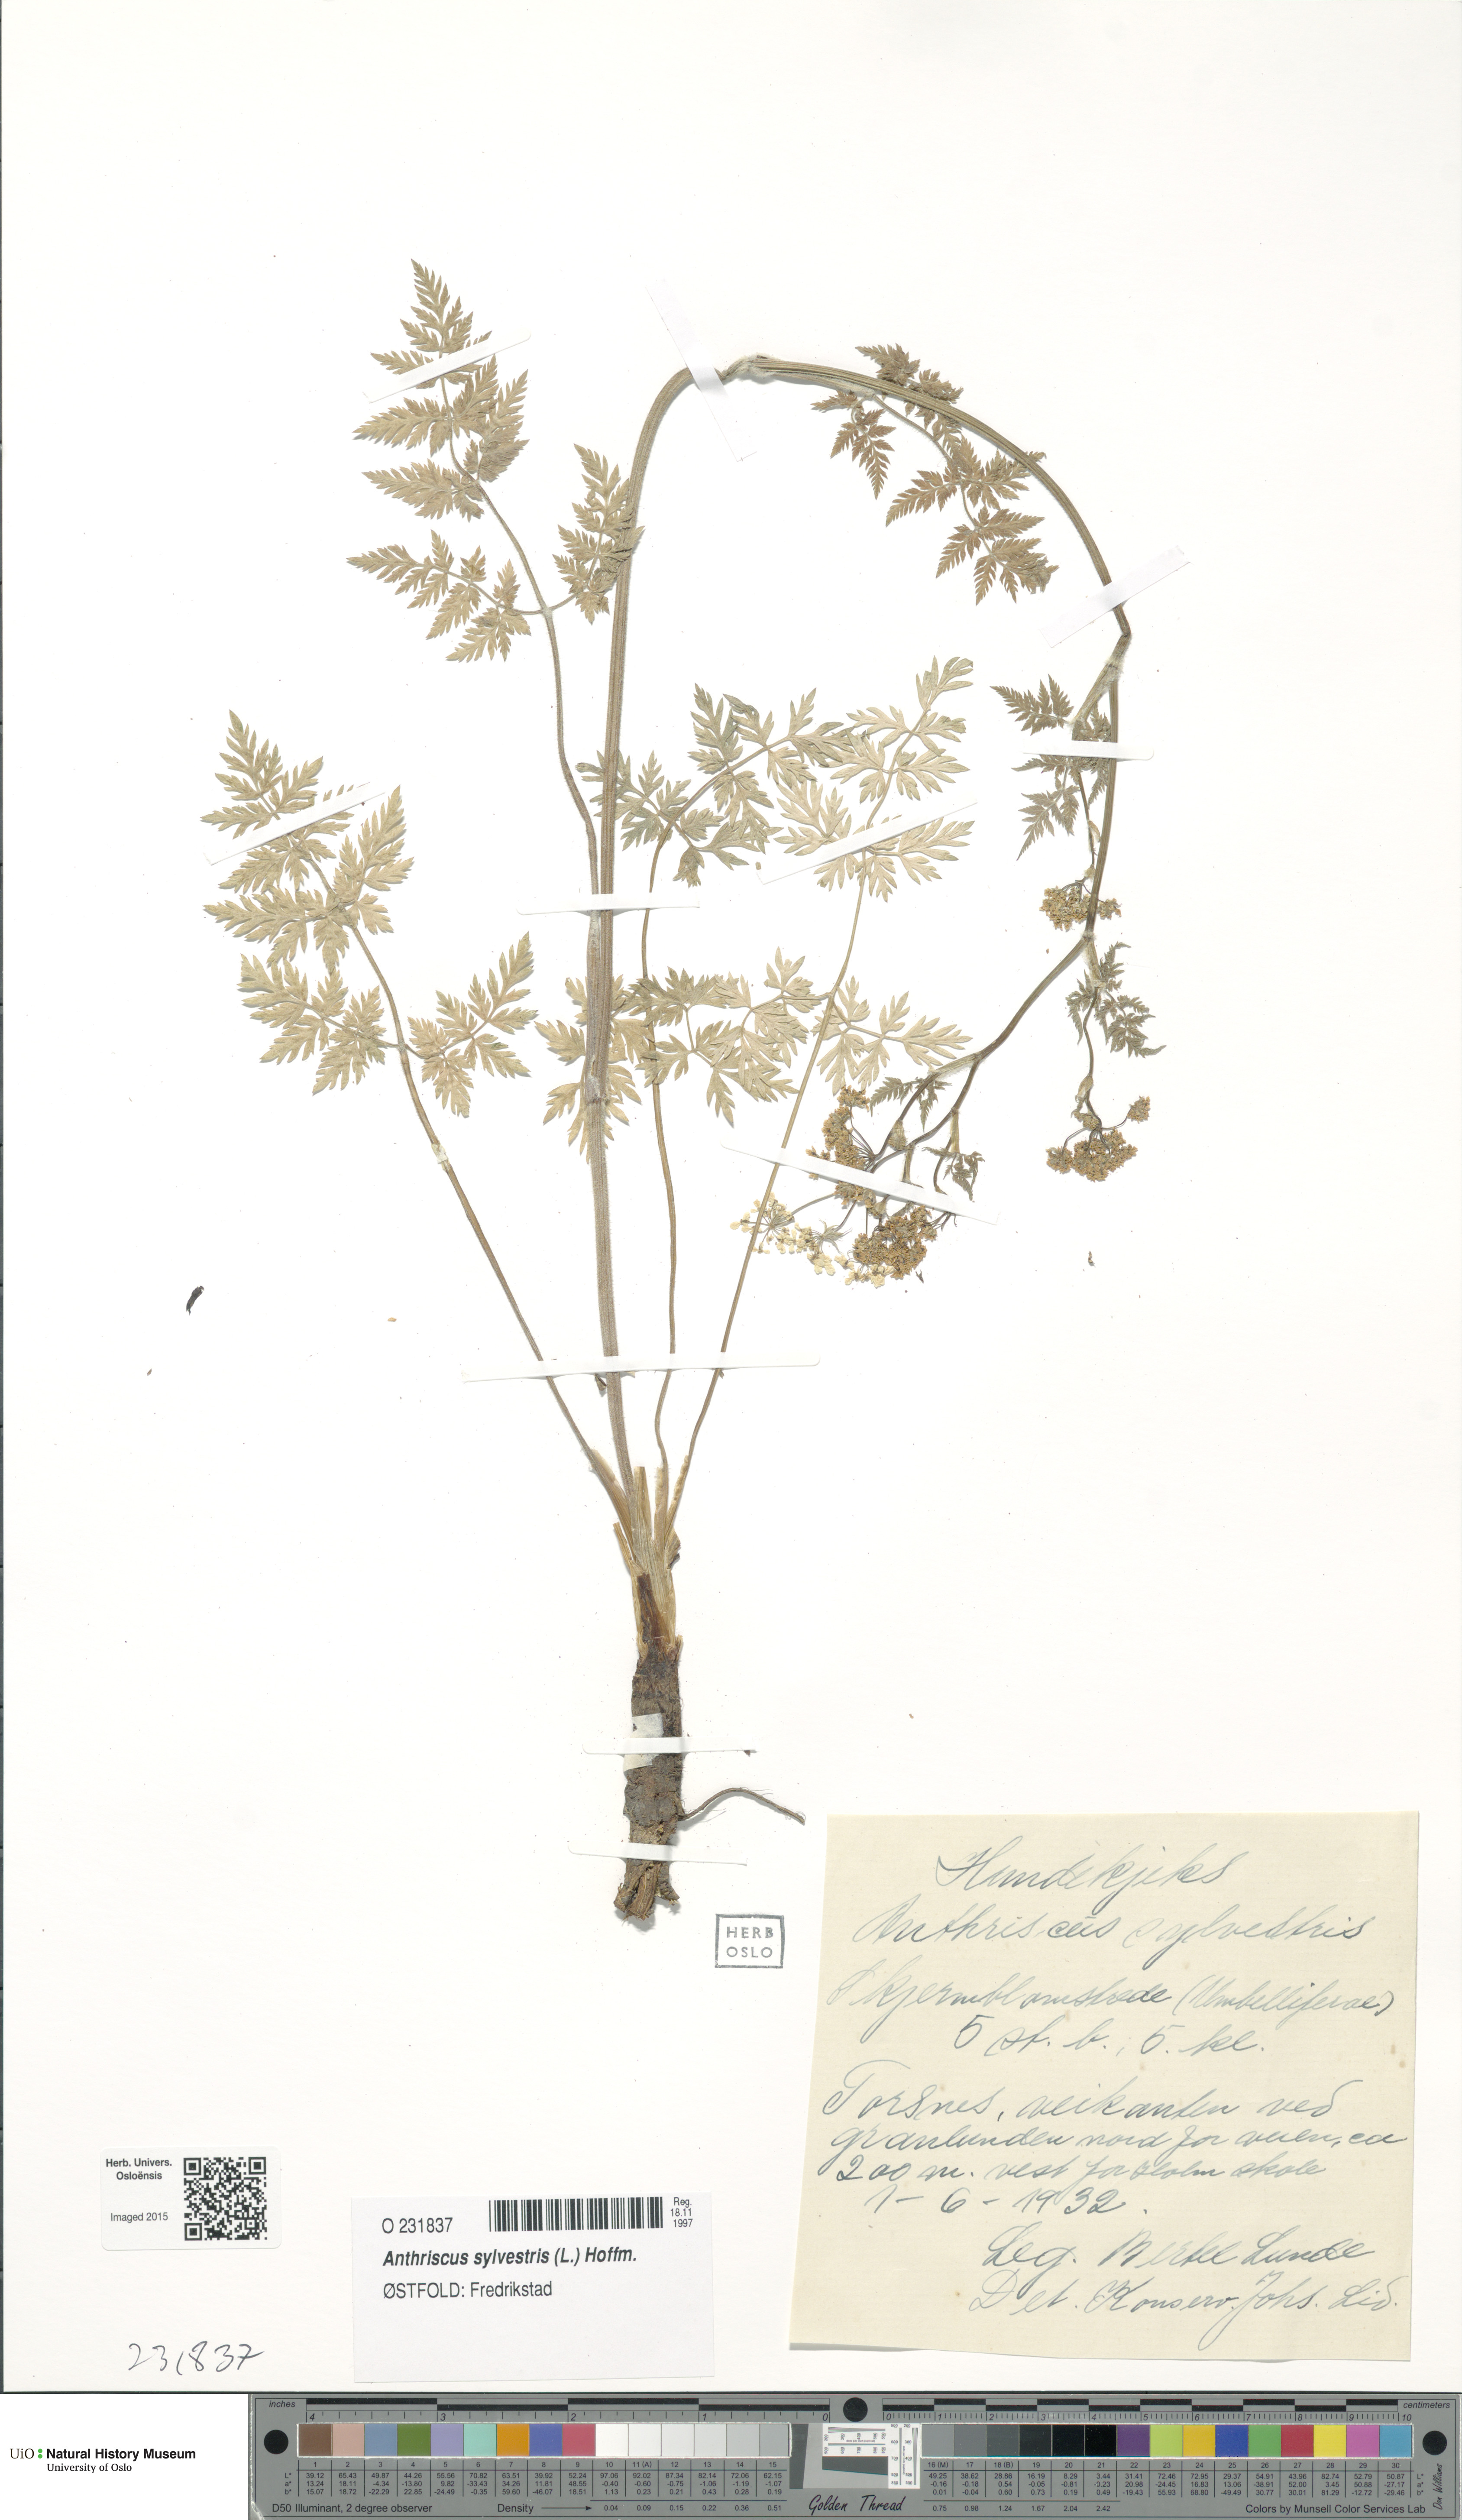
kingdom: Plantae
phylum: Tracheophyta
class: Magnoliopsida
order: Apiales
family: Apiaceae
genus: Anthriscus
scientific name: Anthriscus sylvestris
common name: Cow parsley
